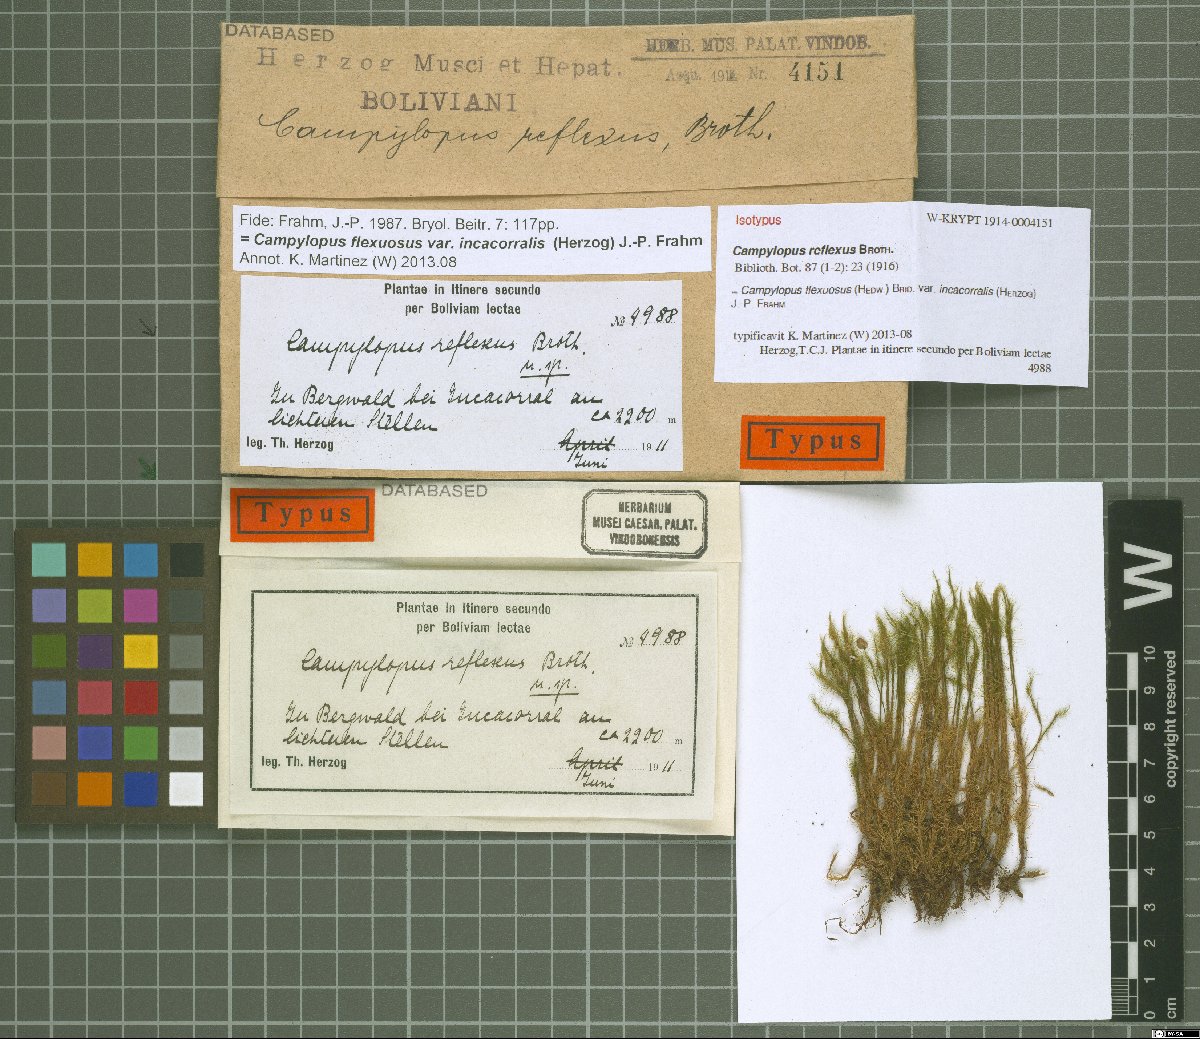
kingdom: Plantae
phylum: Bryophyta
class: Bryopsida
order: Dicranales
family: Leucobryaceae
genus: Campylopus
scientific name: Campylopus flexuosus
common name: Rusty swan-neck moss
